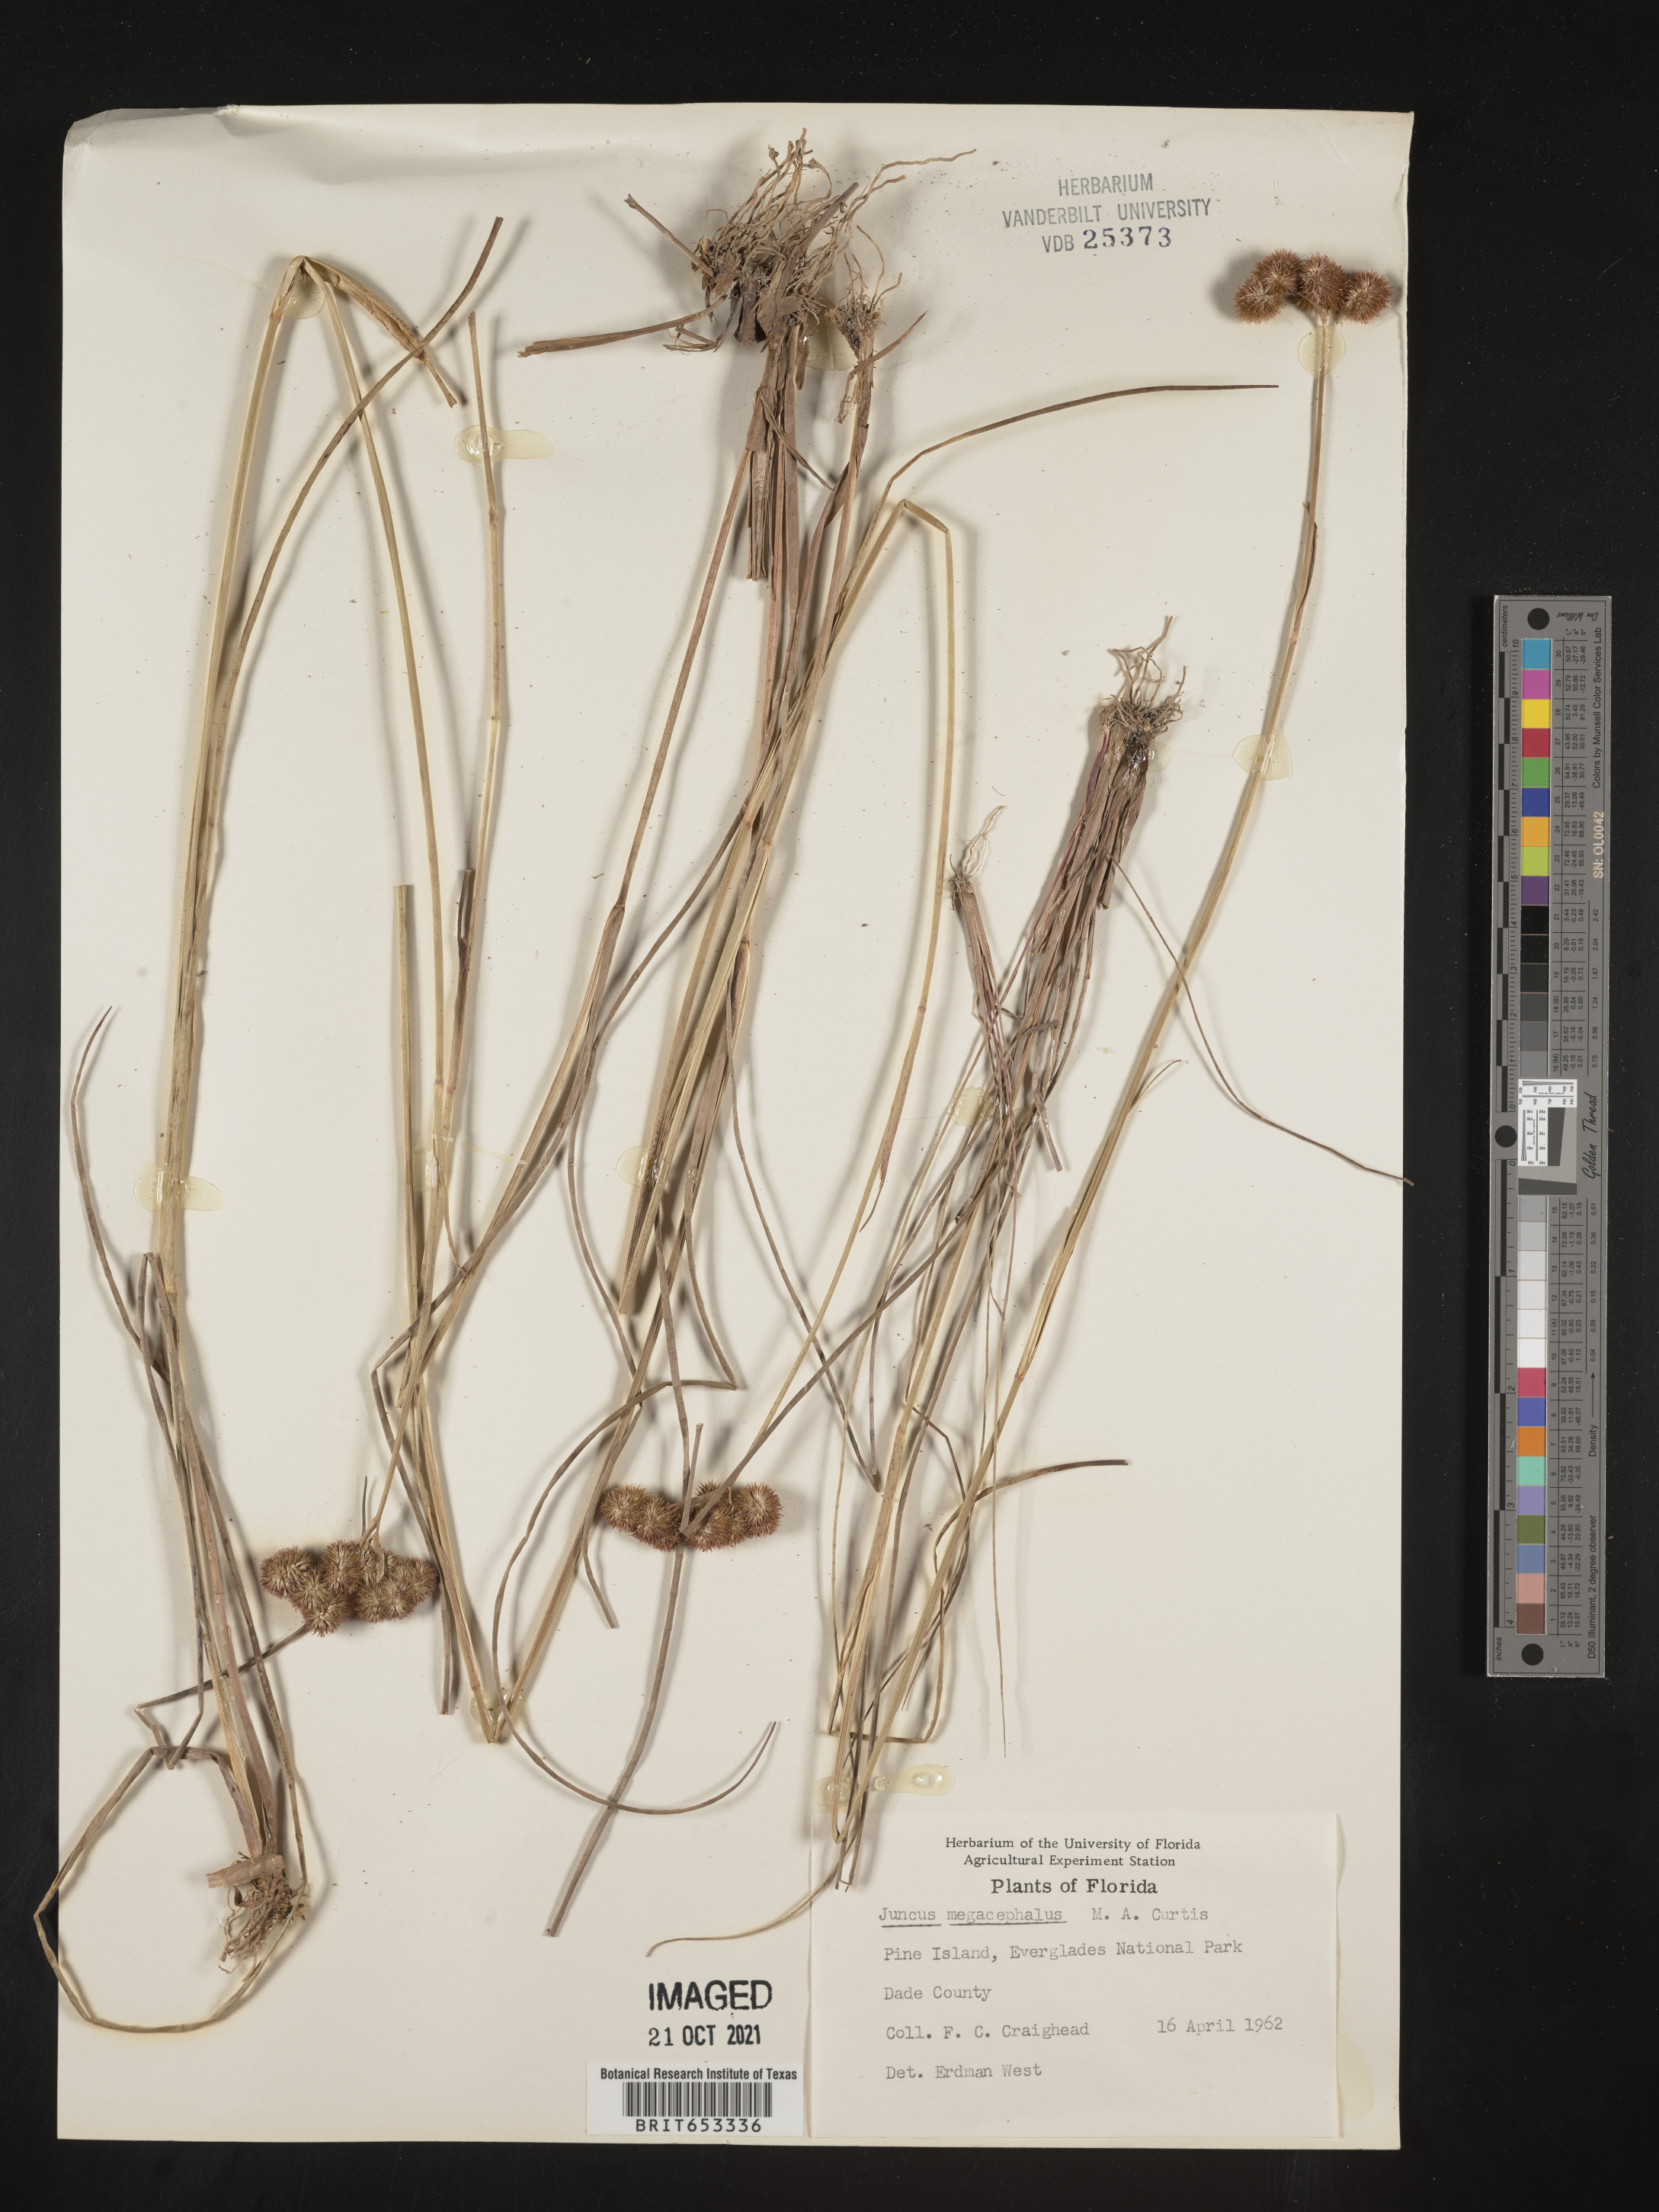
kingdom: Plantae
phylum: Tracheophyta
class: Liliopsida
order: Poales
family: Juncaceae
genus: Juncus
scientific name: Juncus megacephalus
